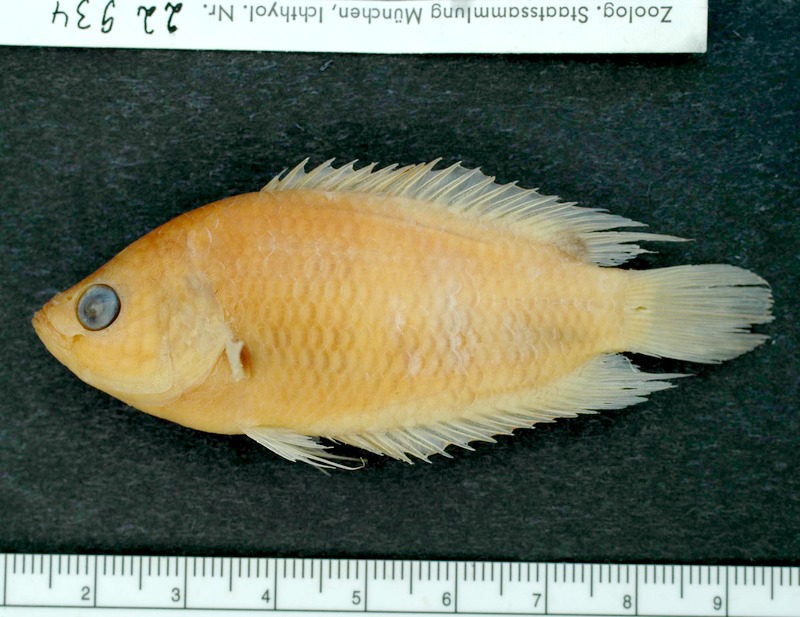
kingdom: Animalia
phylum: Chordata
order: Perciformes
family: Osphronemidae
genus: Belontia
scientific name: Belontia signata
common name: Combtail
